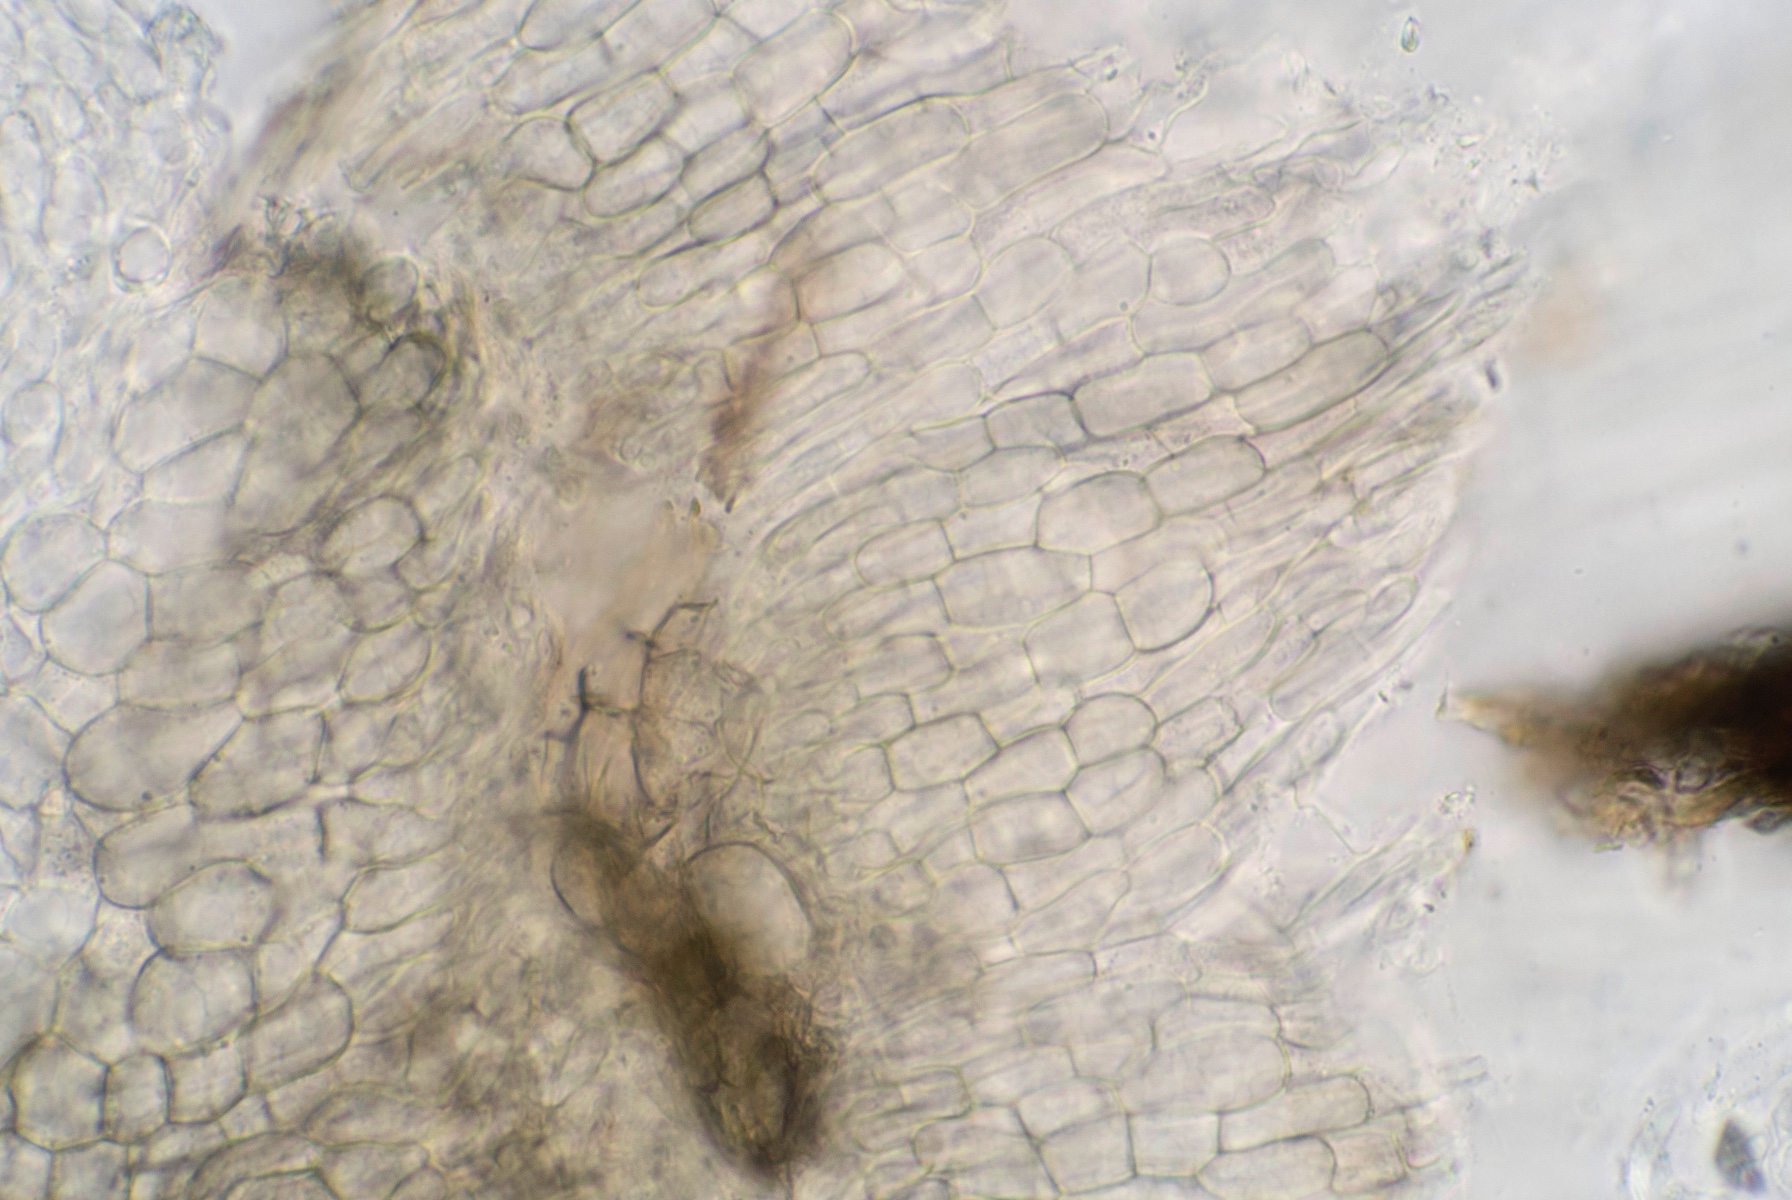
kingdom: Fungi
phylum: Ascomycota
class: Leotiomycetes
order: Helotiales
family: Ploettnerulaceae
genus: Pyrenopeziza
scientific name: Pyrenopeziza petiolaris
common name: ahorn-kerneskive
